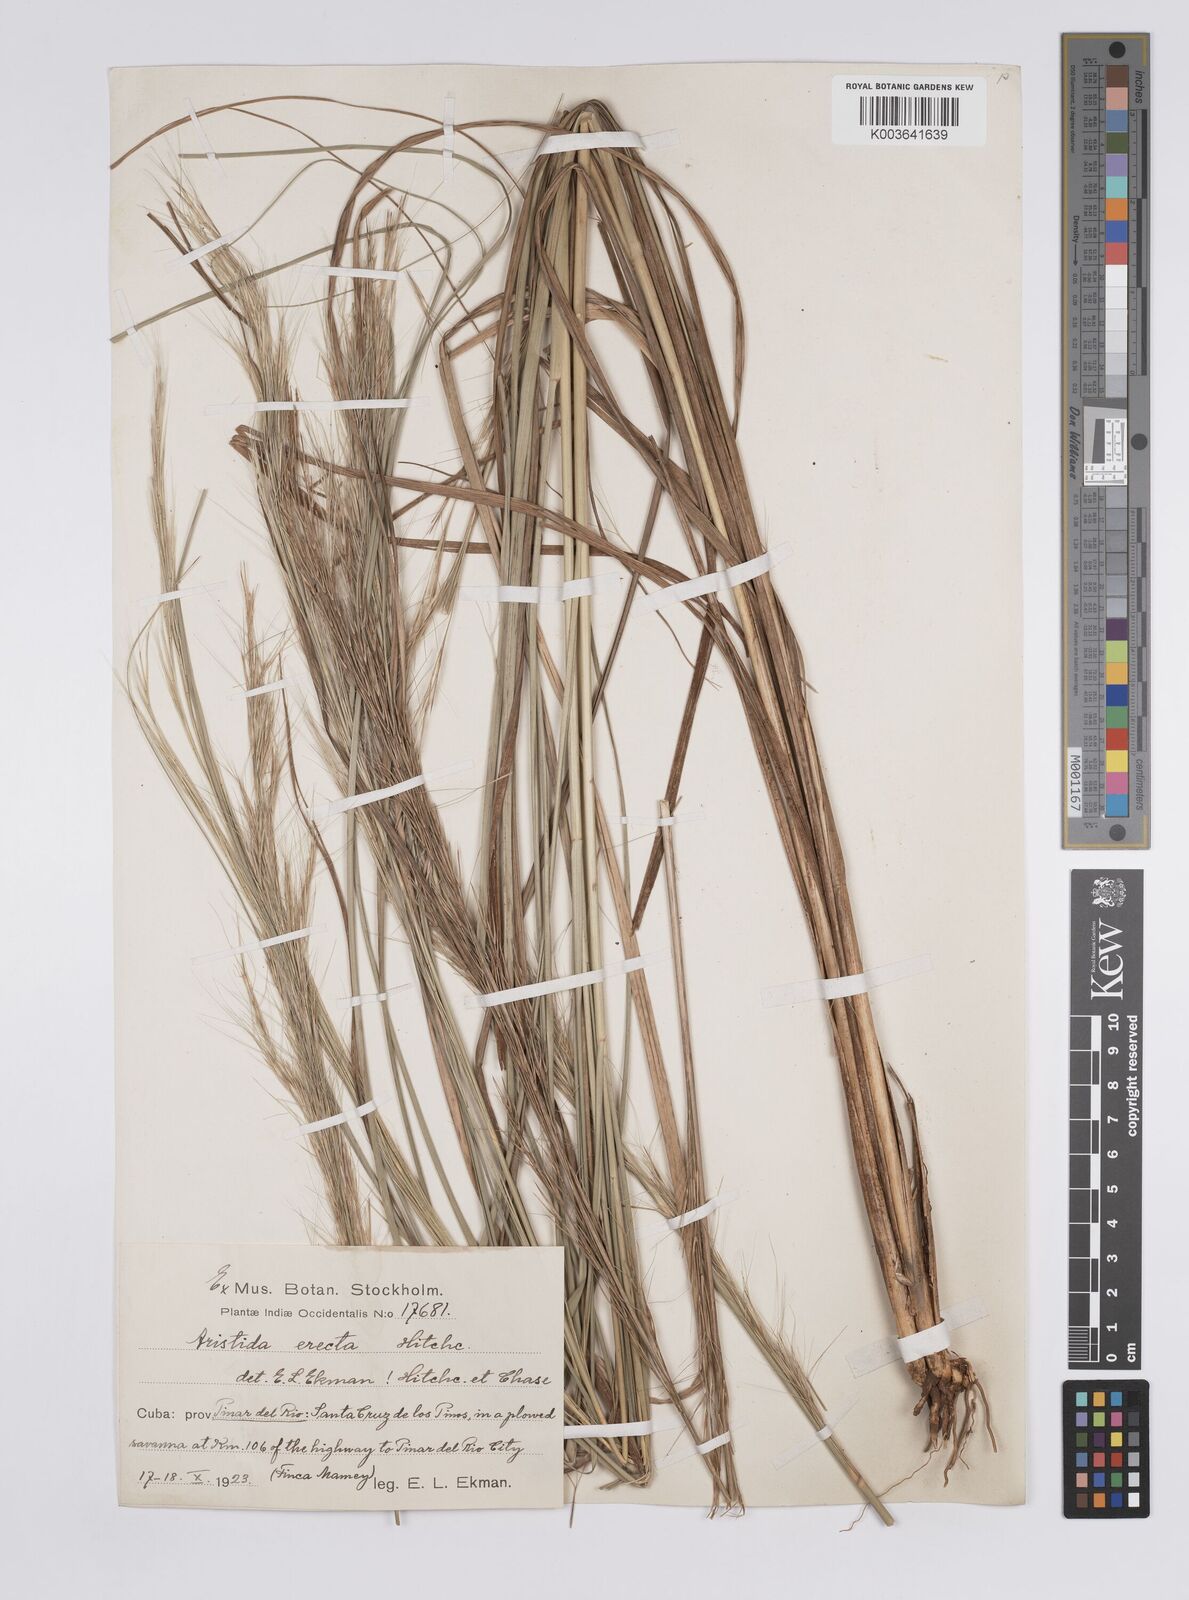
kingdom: Plantae
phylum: Tracheophyta
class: Liliopsida
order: Poales
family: Poaceae
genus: Aristida
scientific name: Aristida erecta
